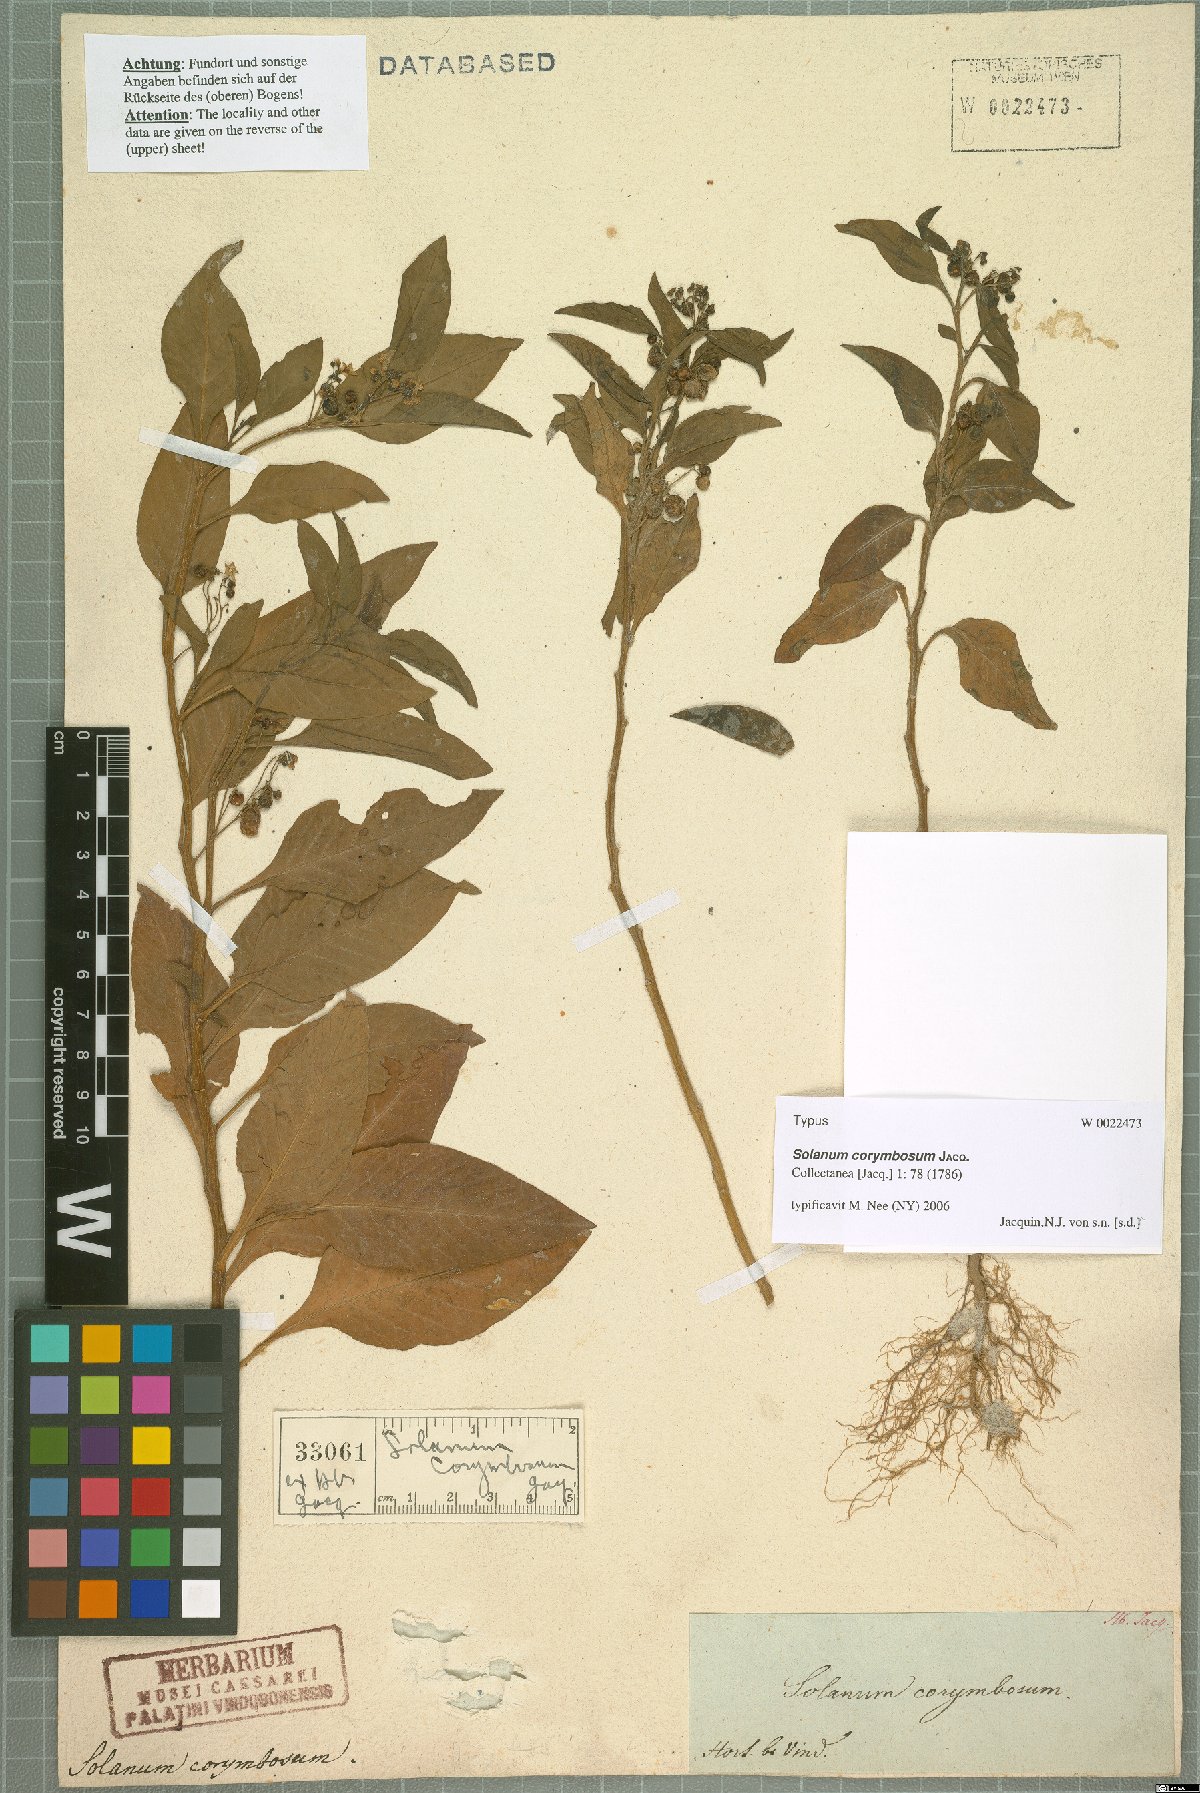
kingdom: Plantae
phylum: Tracheophyta
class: Magnoliopsida
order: Solanales
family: Solanaceae
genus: Solanum
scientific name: Solanum corymbosum
